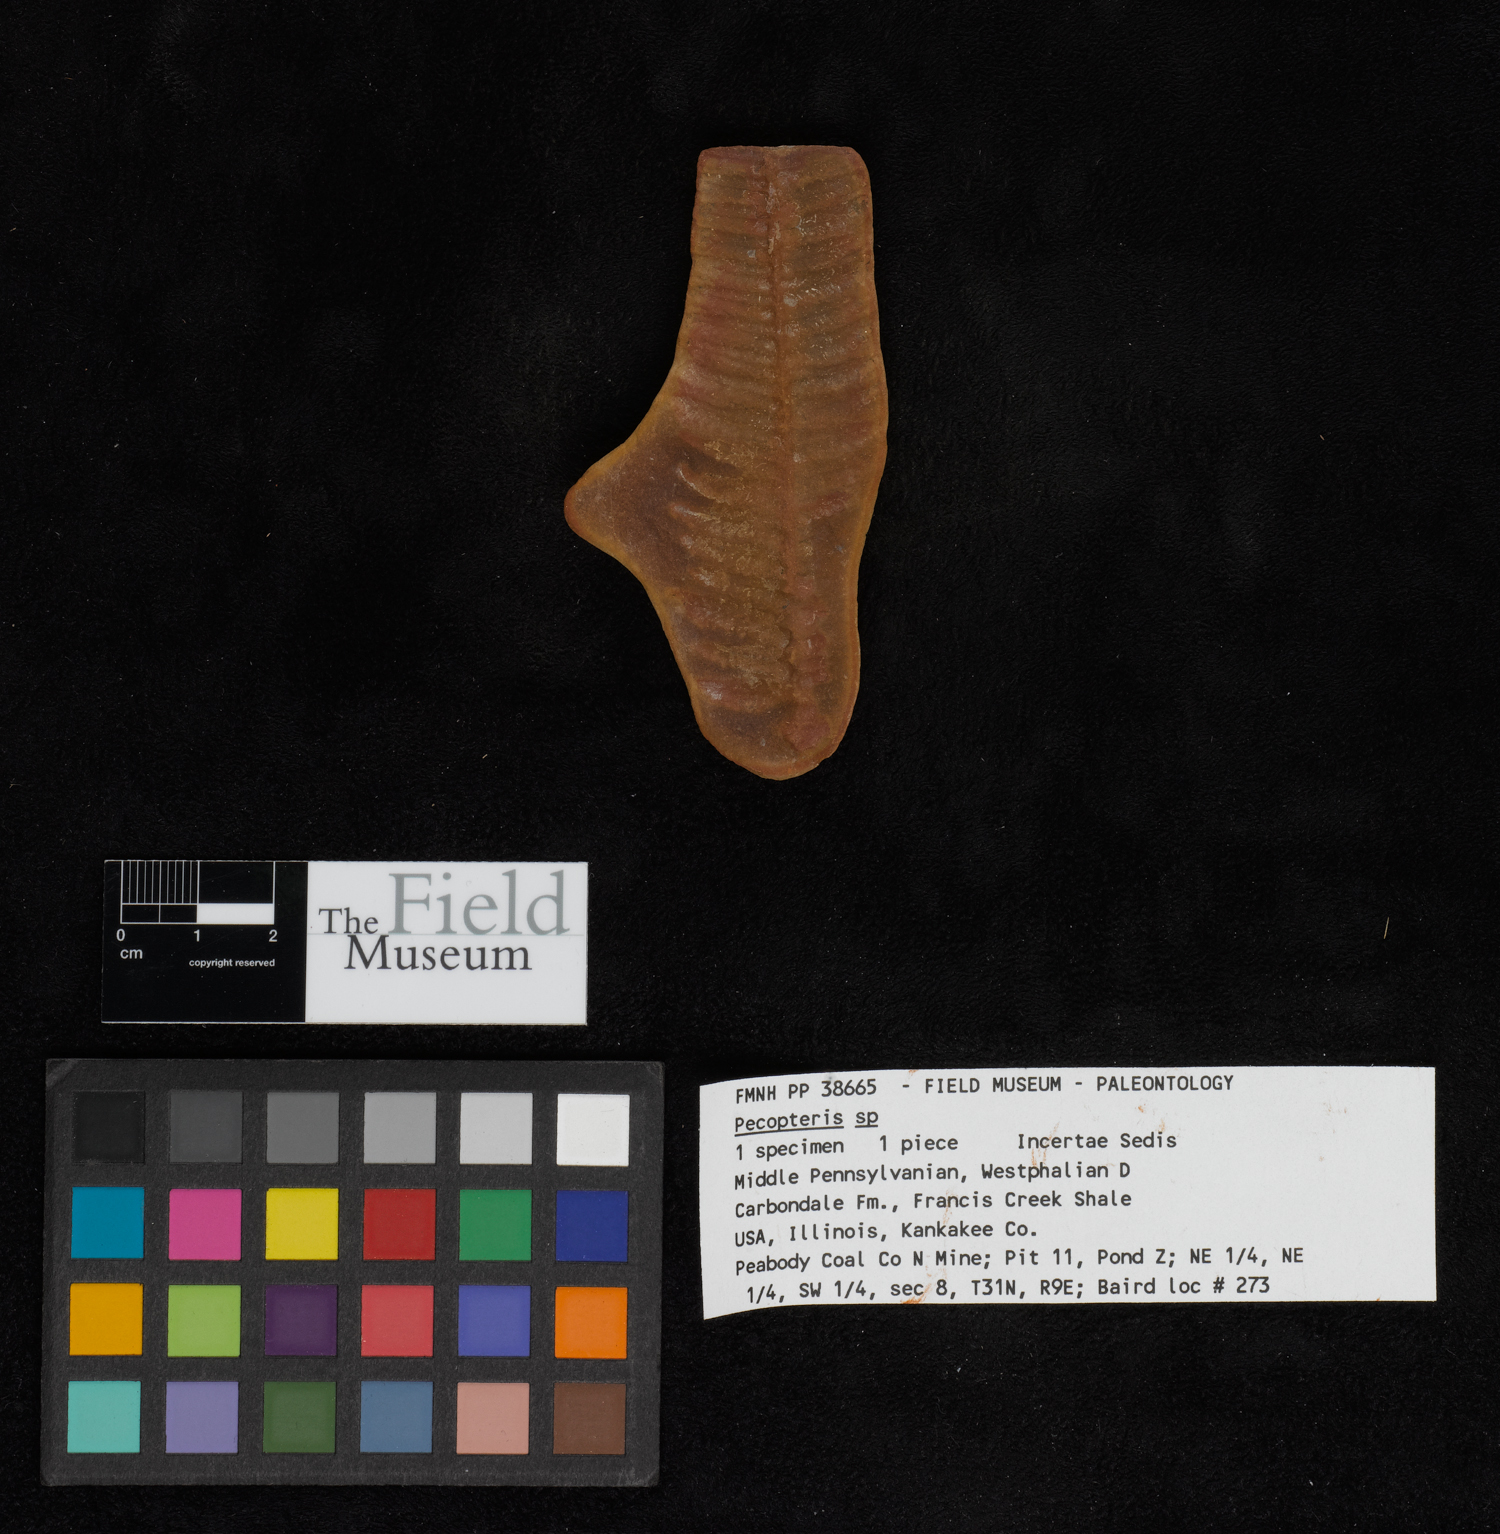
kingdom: Plantae
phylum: Tracheophyta
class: Polypodiopsida
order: Marattiales
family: Asterothecaceae
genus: Pecopteris
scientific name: Pecopteris
